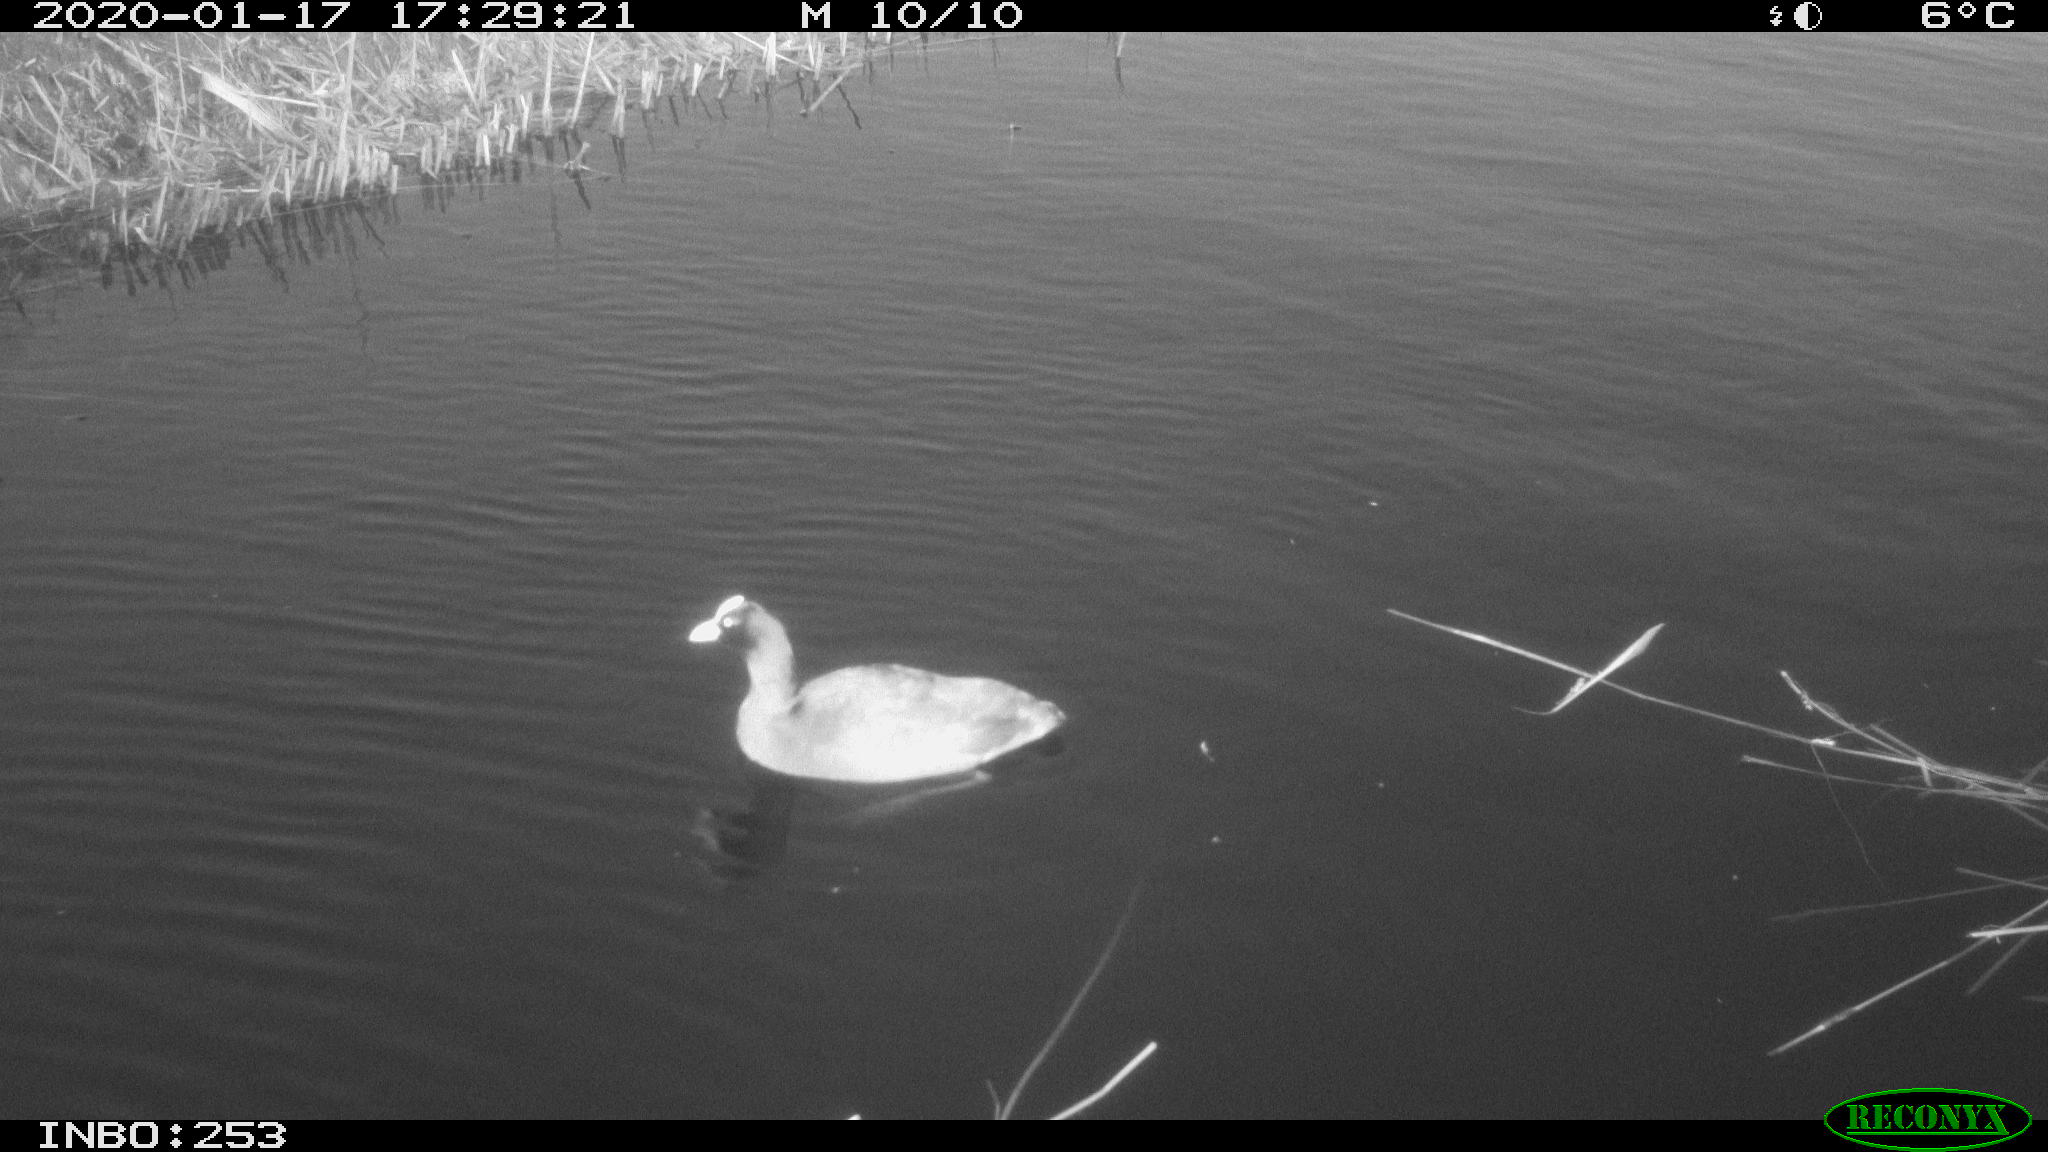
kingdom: Animalia
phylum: Chordata
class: Aves
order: Gruiformes
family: Rallidae
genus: Fulica
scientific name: Fulica atra
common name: Eurasian coot
